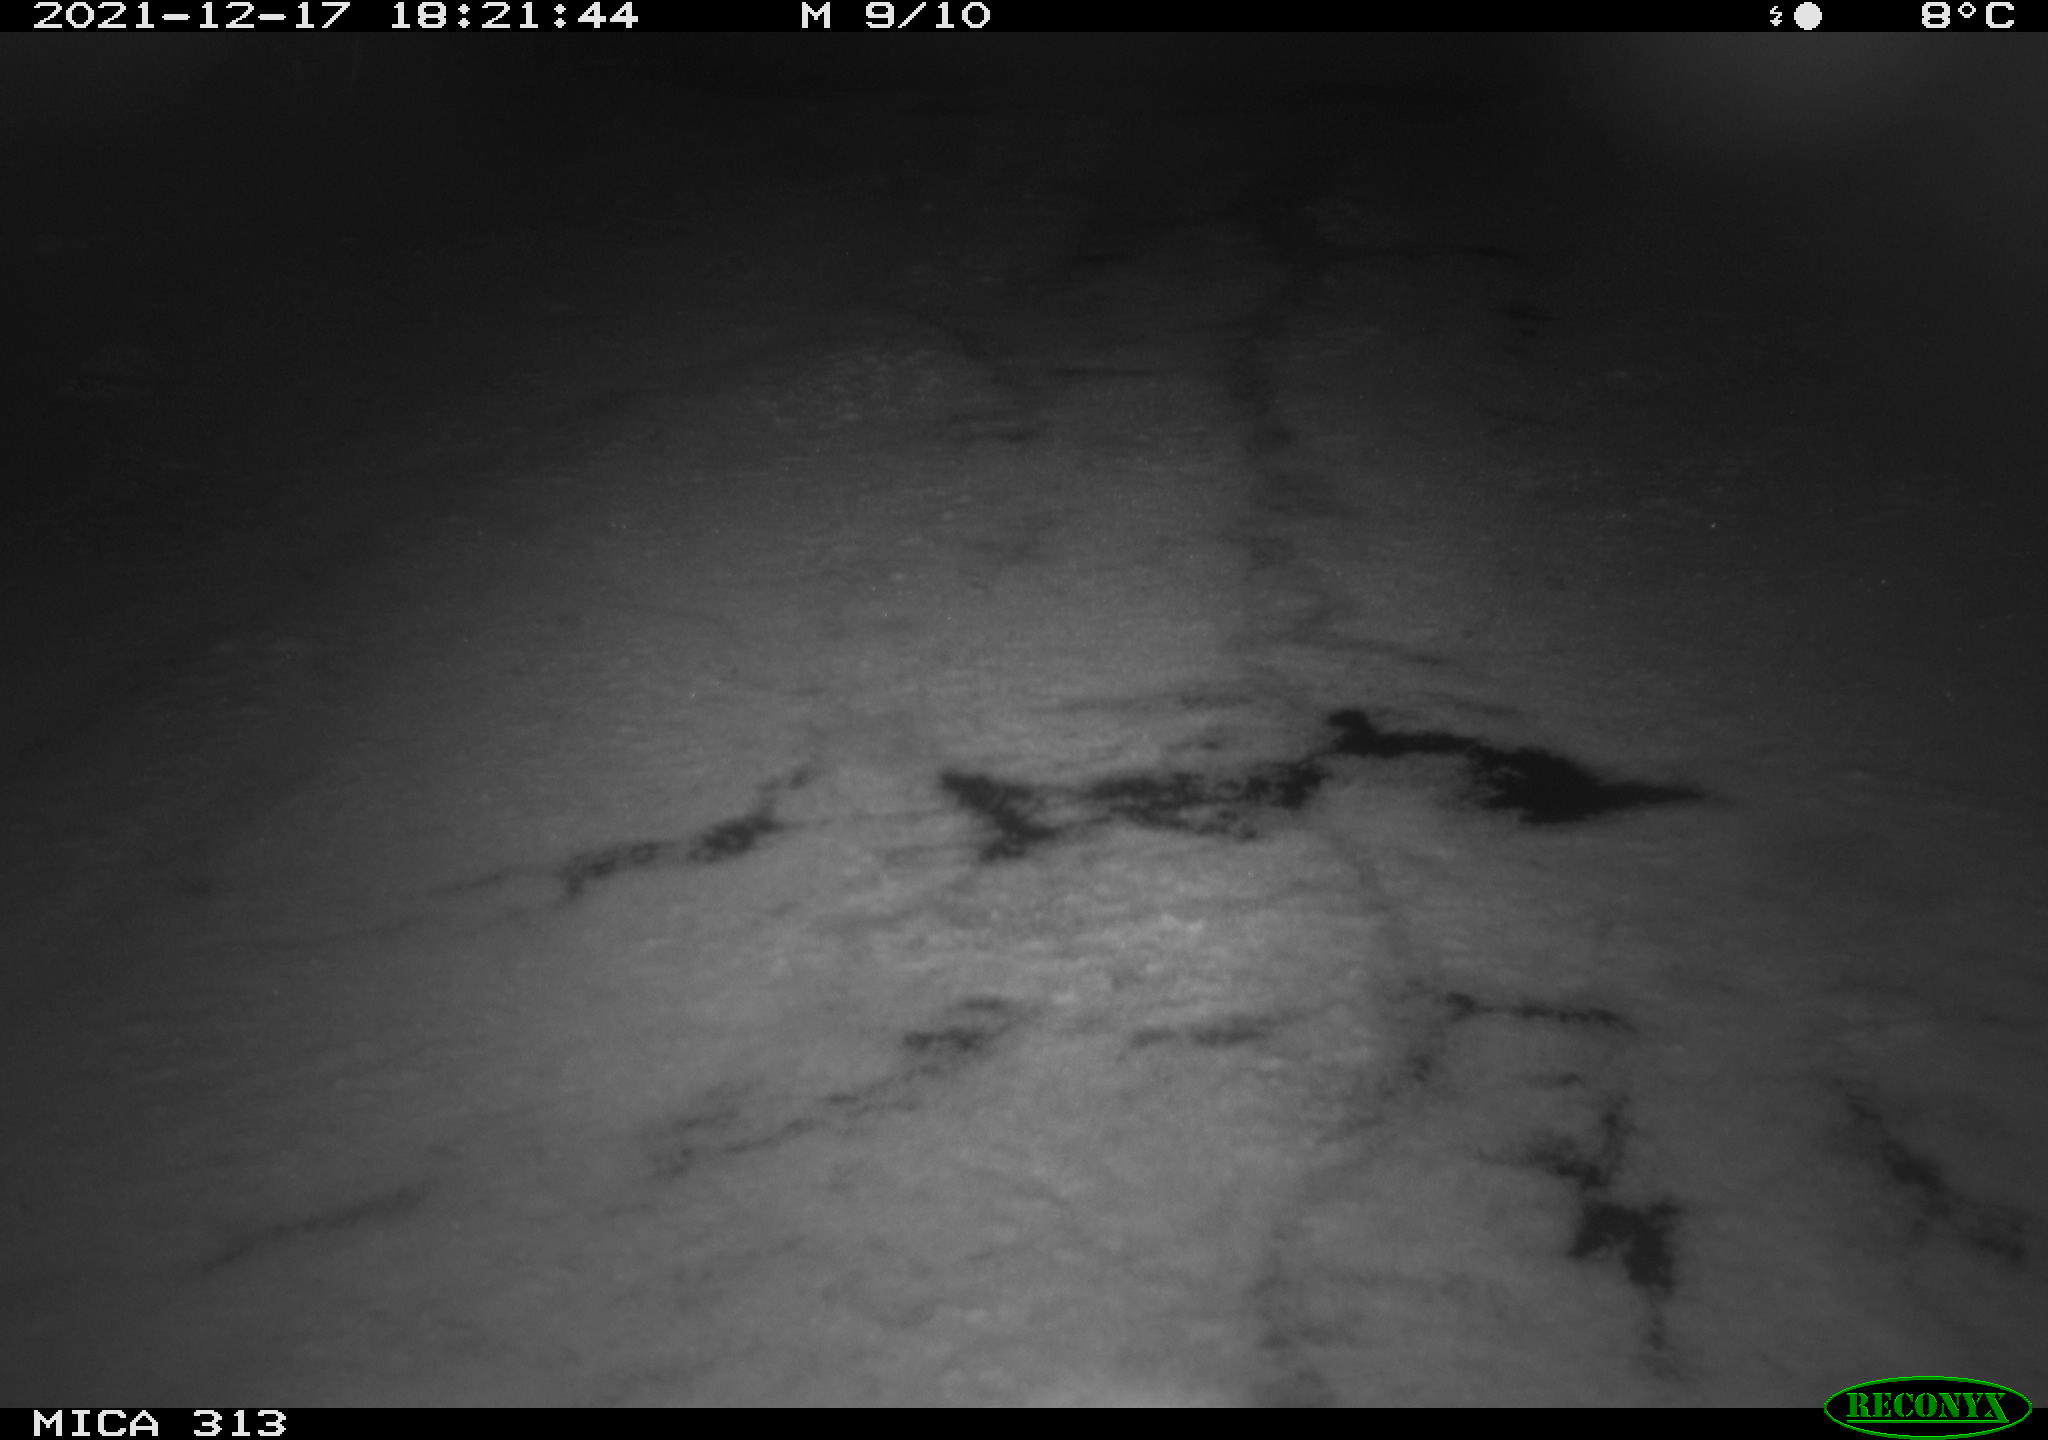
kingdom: Animalia
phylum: Chordata
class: Aves
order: Gruiformes
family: Rallidae
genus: Fulica
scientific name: Fulica atra
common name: Eurasian coot
